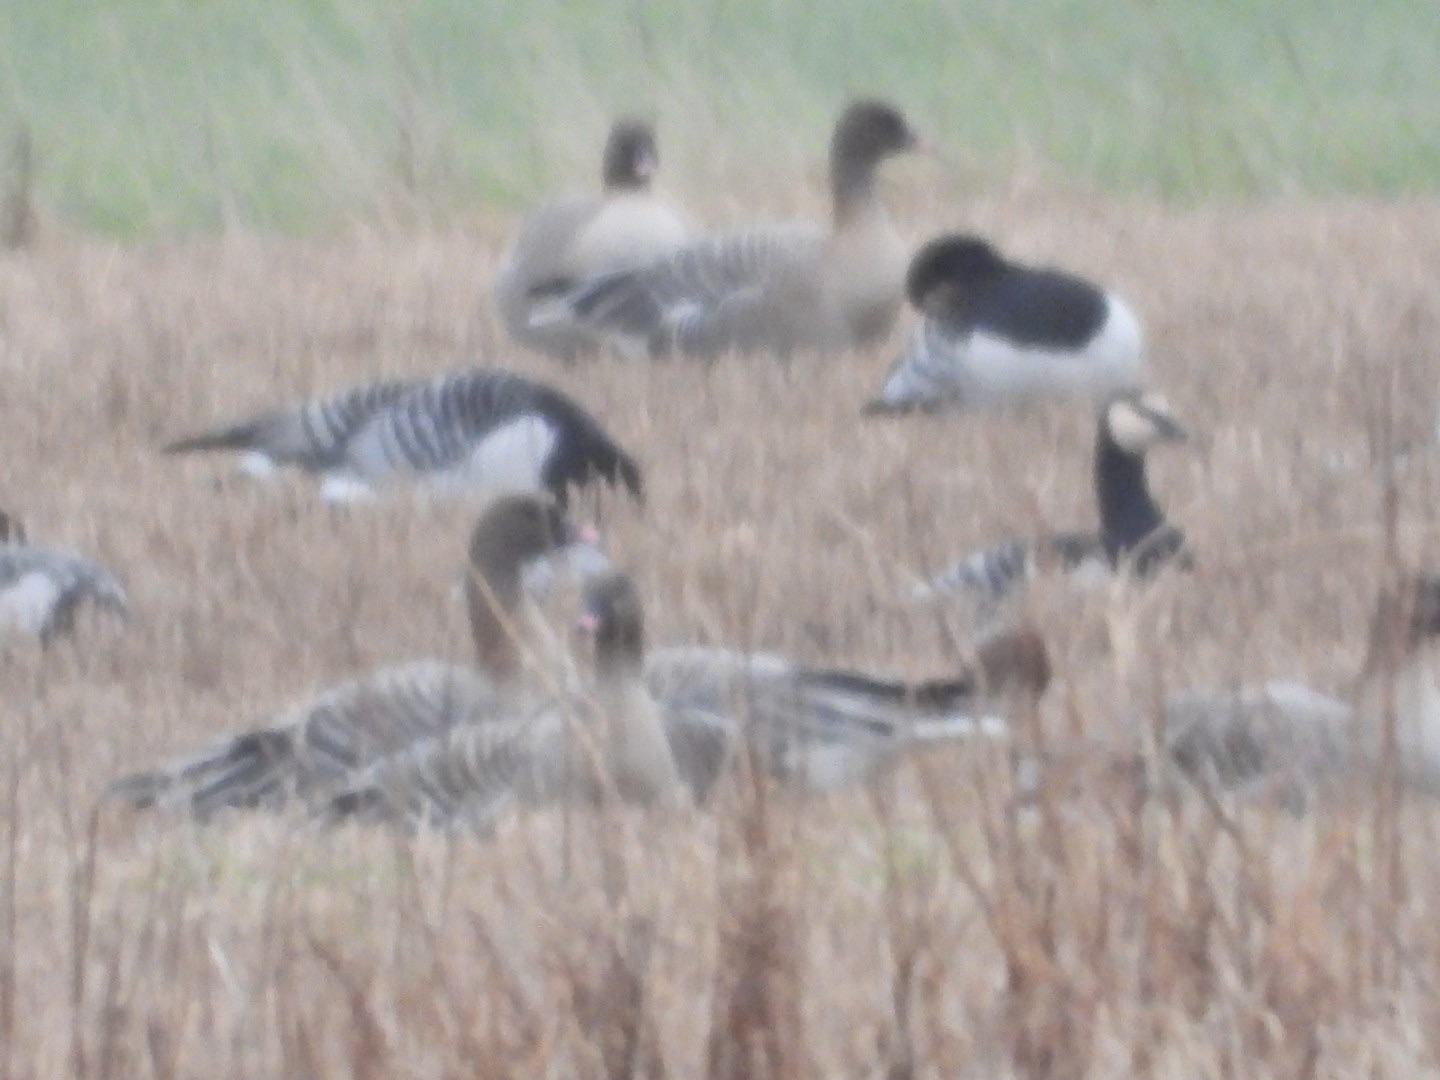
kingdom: Animalia
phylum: Chordata
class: Aves
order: Anseriformes
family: Anatidae
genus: Anser
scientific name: Anser brachyrhynchus
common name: Kortnæbbet gås
